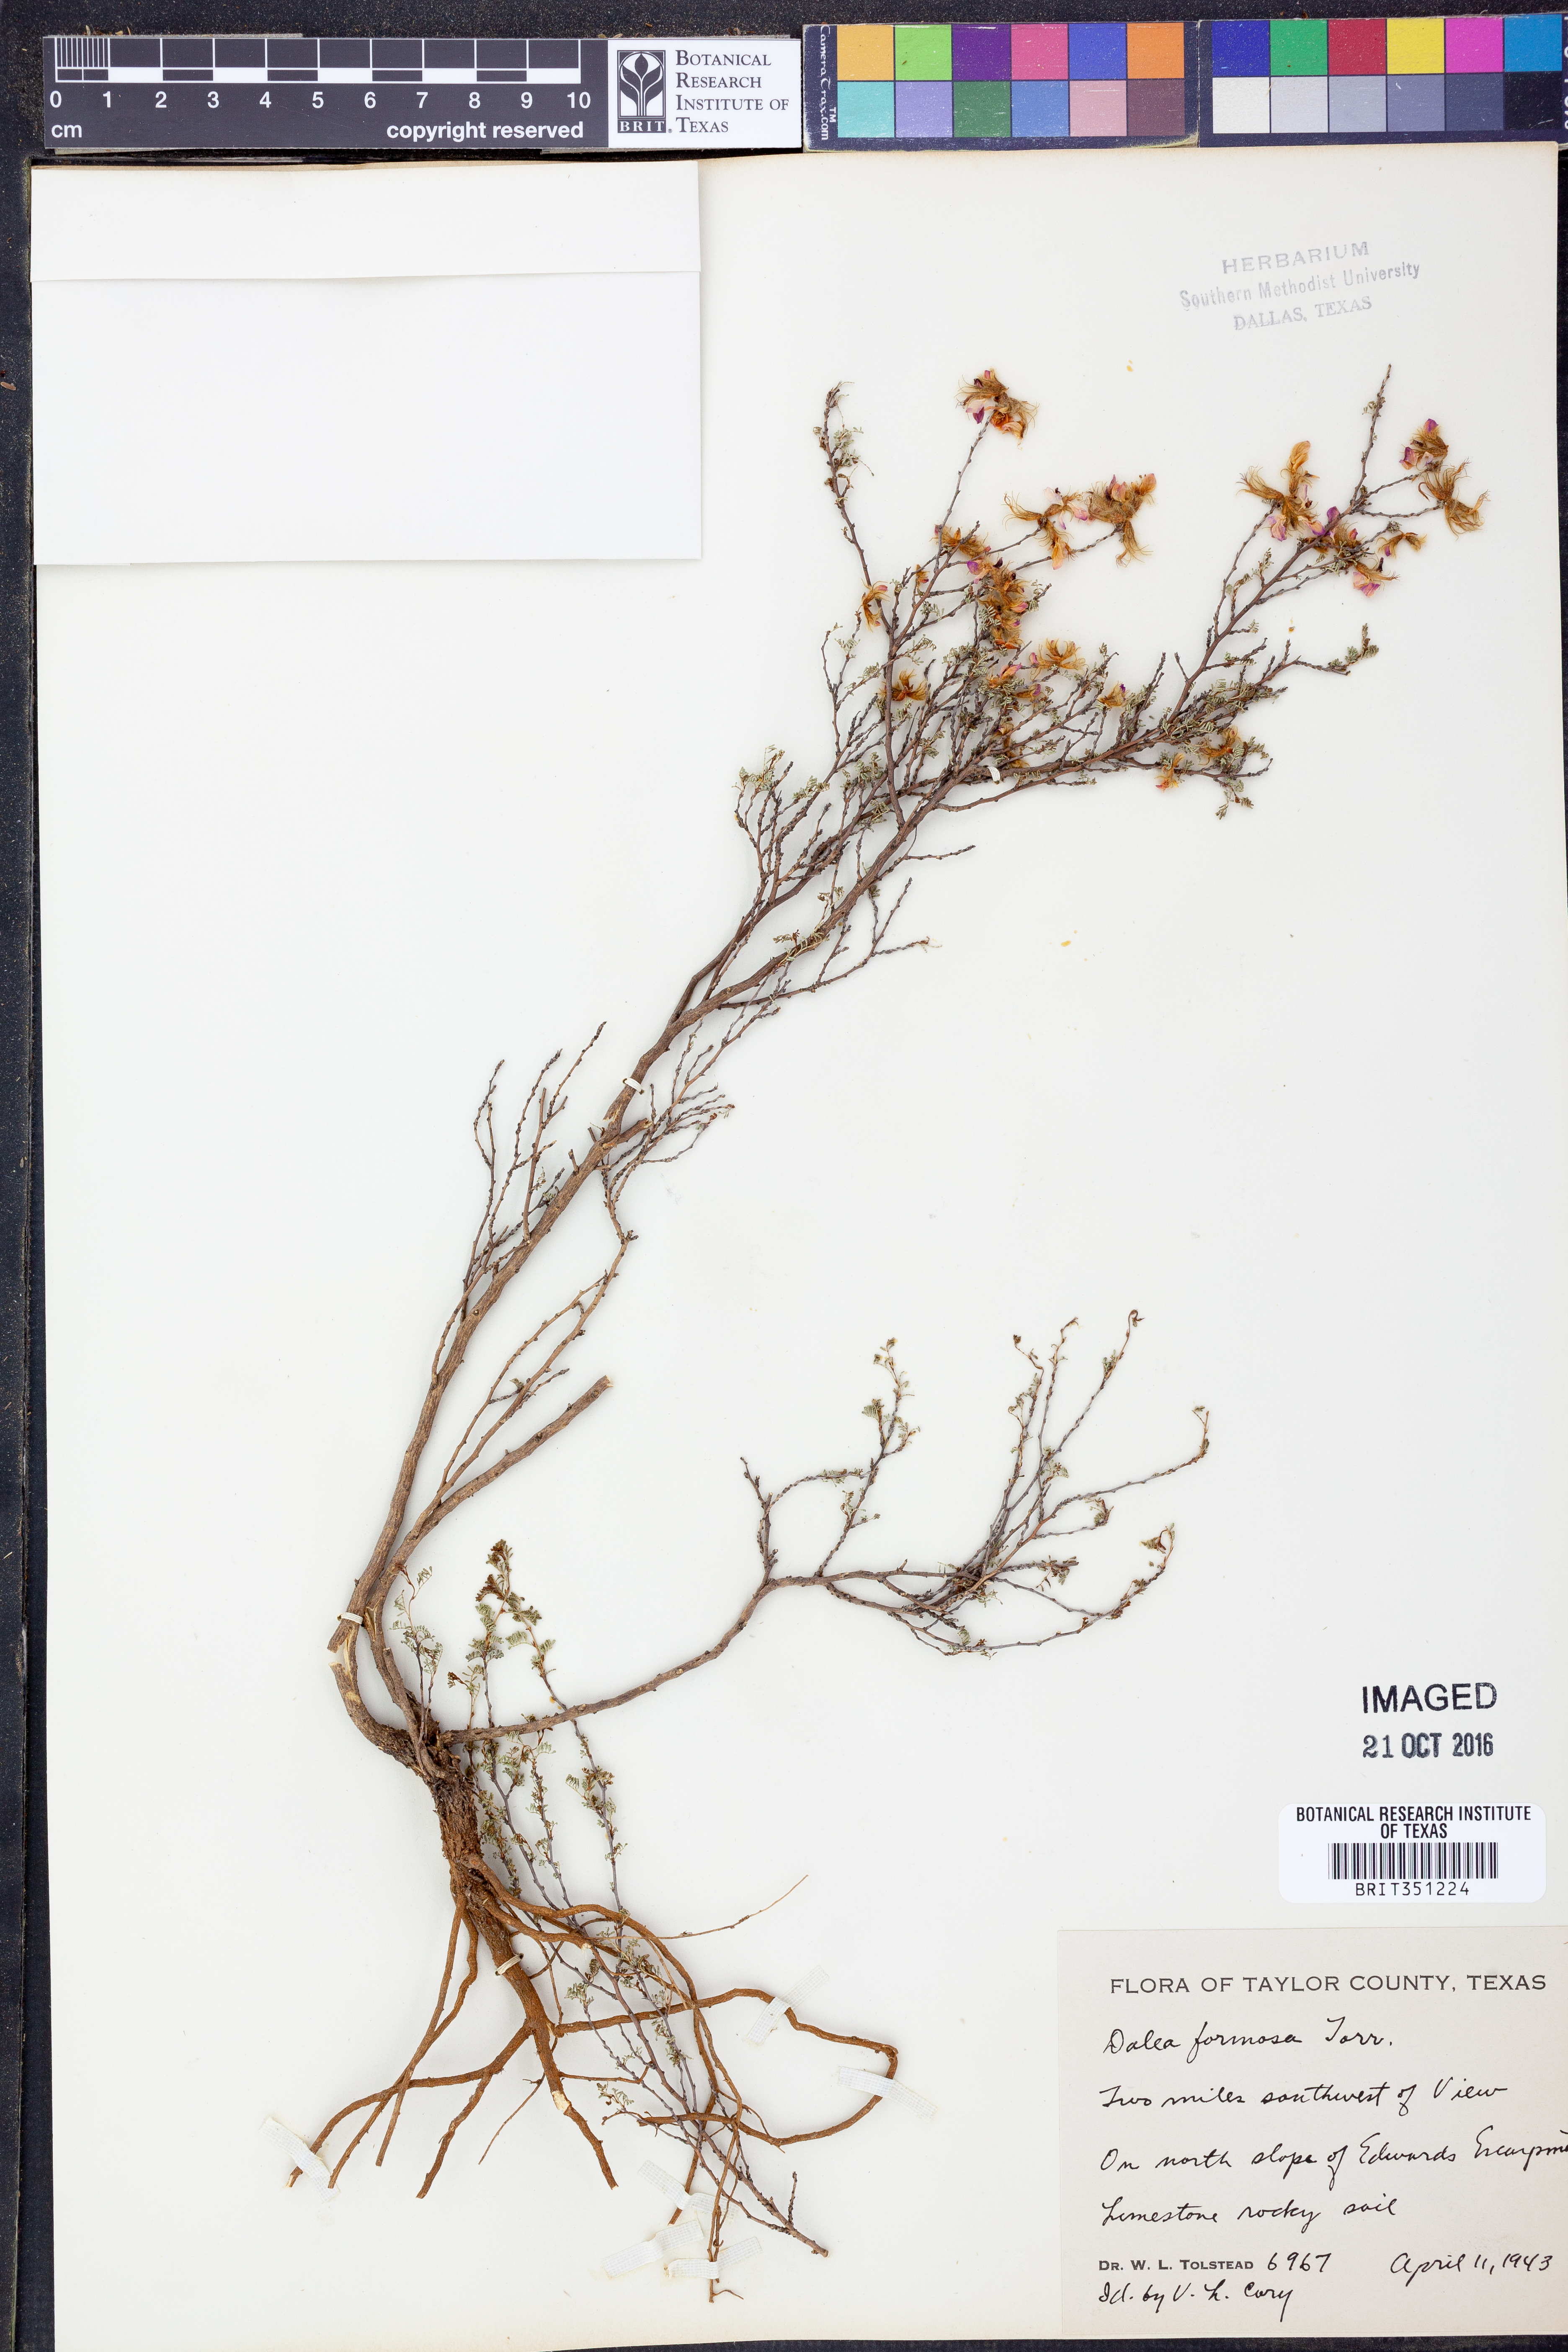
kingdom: Plantae
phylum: Tracheophyta
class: Magnoliopsida
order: Fabales
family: Fabaceae
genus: Dalea
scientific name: Dalea formosa
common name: Feather-plume dalea
